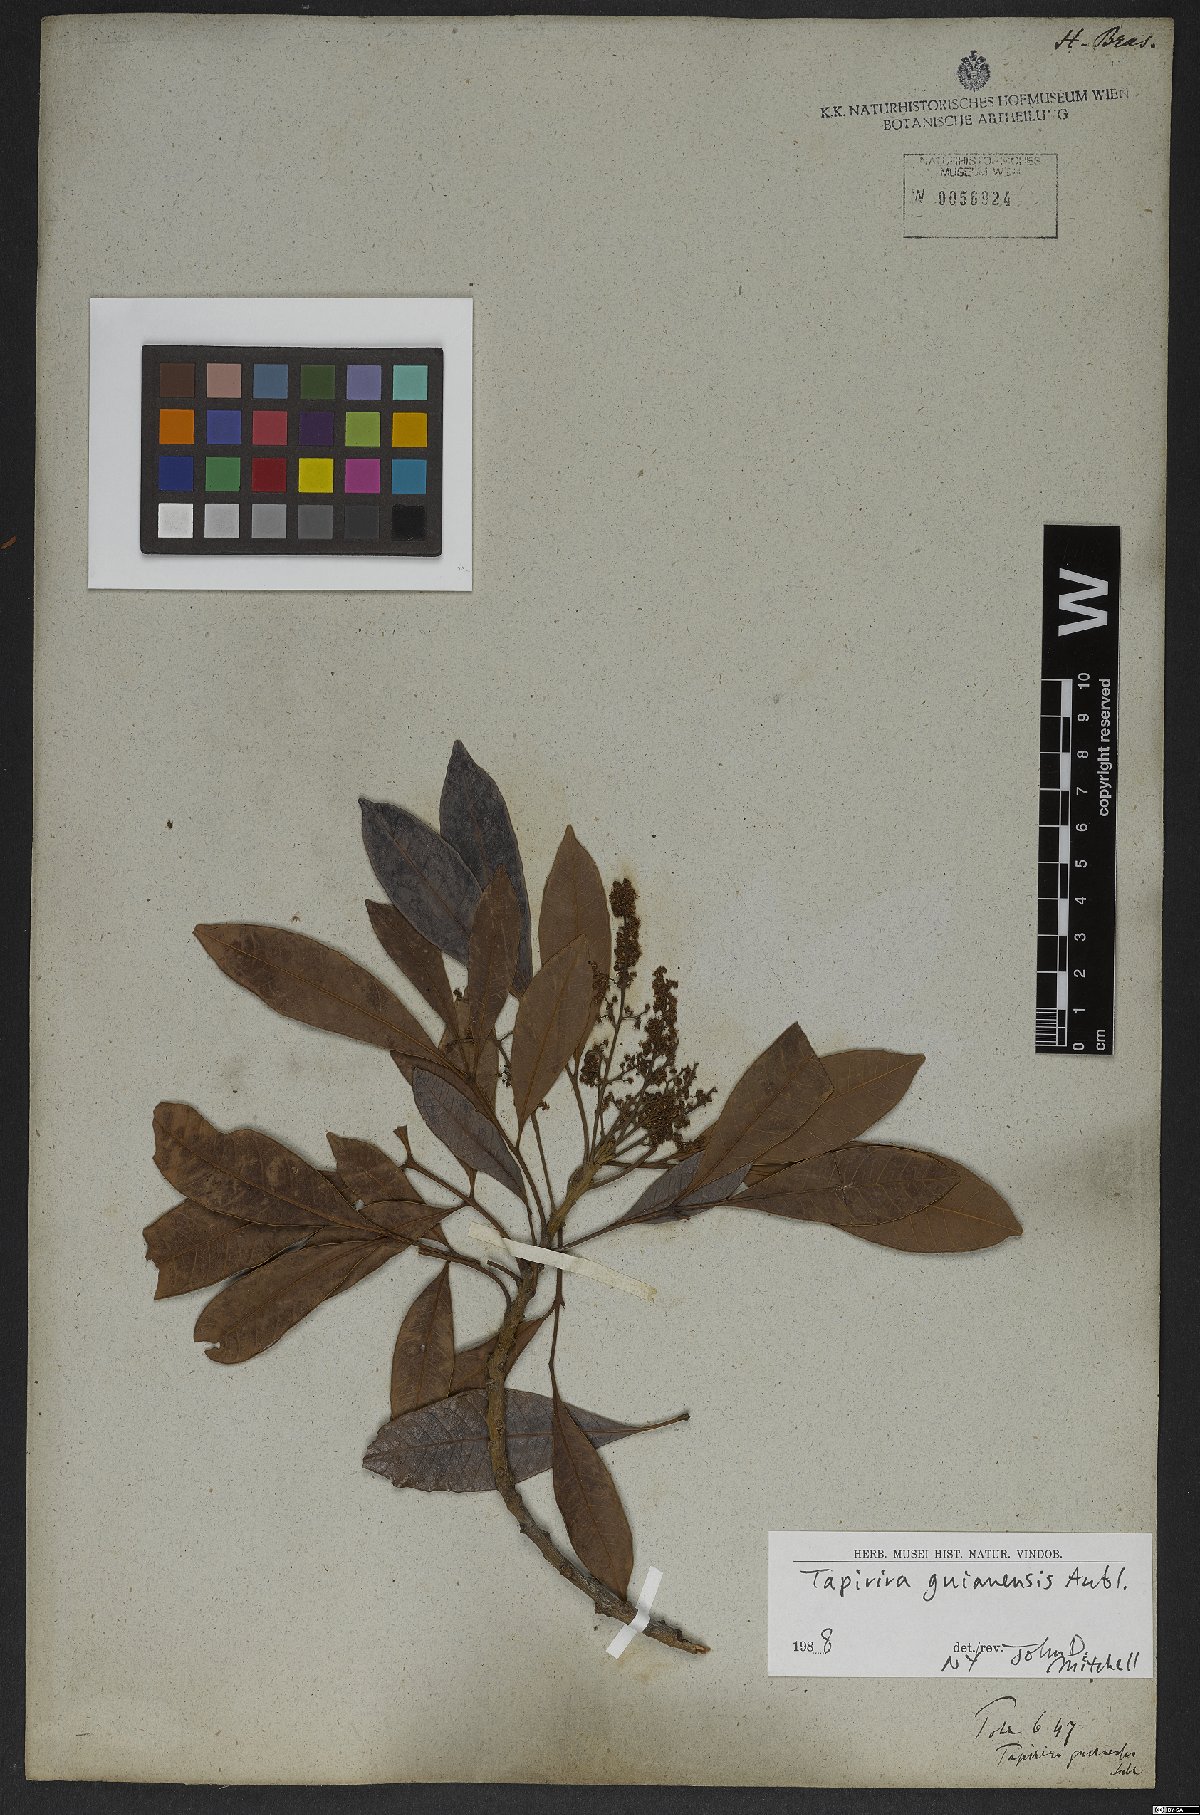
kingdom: Plantae
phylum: Tracheophyta
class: Magnoliopsida
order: Sapindales
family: Anacardiaceae
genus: Tapirira
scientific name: Tapirira guianensis
